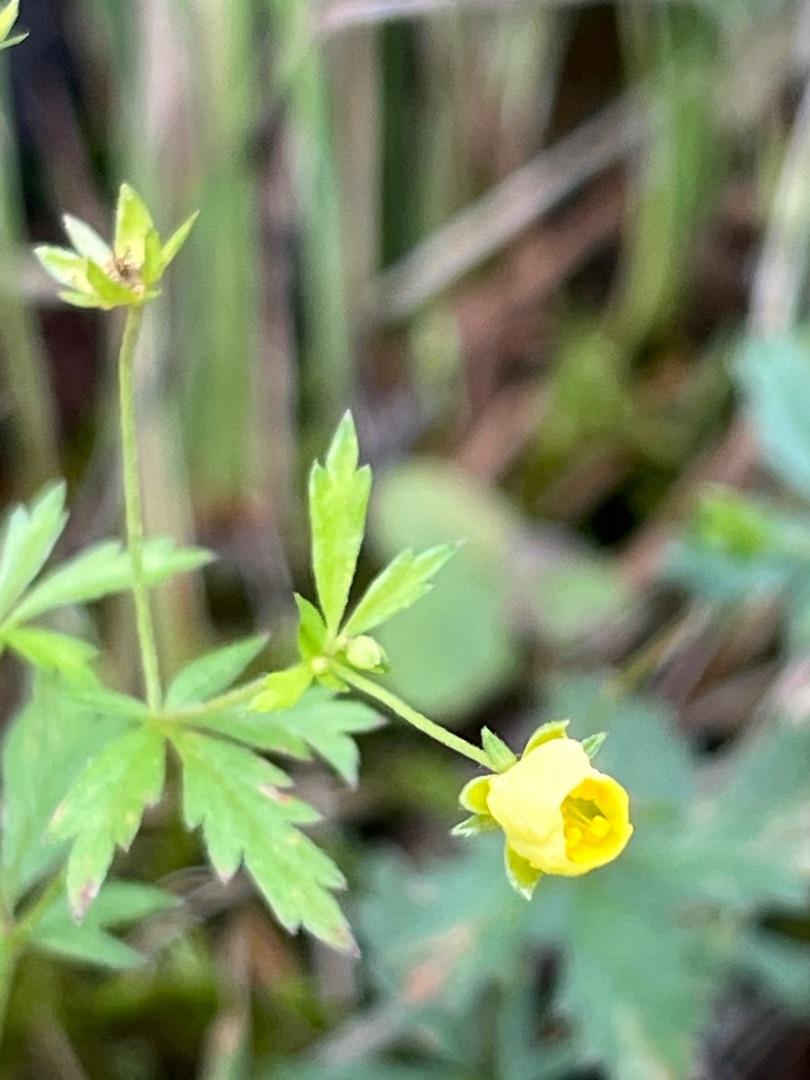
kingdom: Plantae
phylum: Tracheophyta
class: Magnoliopsida
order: Rosales
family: Rosaceae
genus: Potentilla
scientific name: Potentilla erecta
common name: Tormentil
